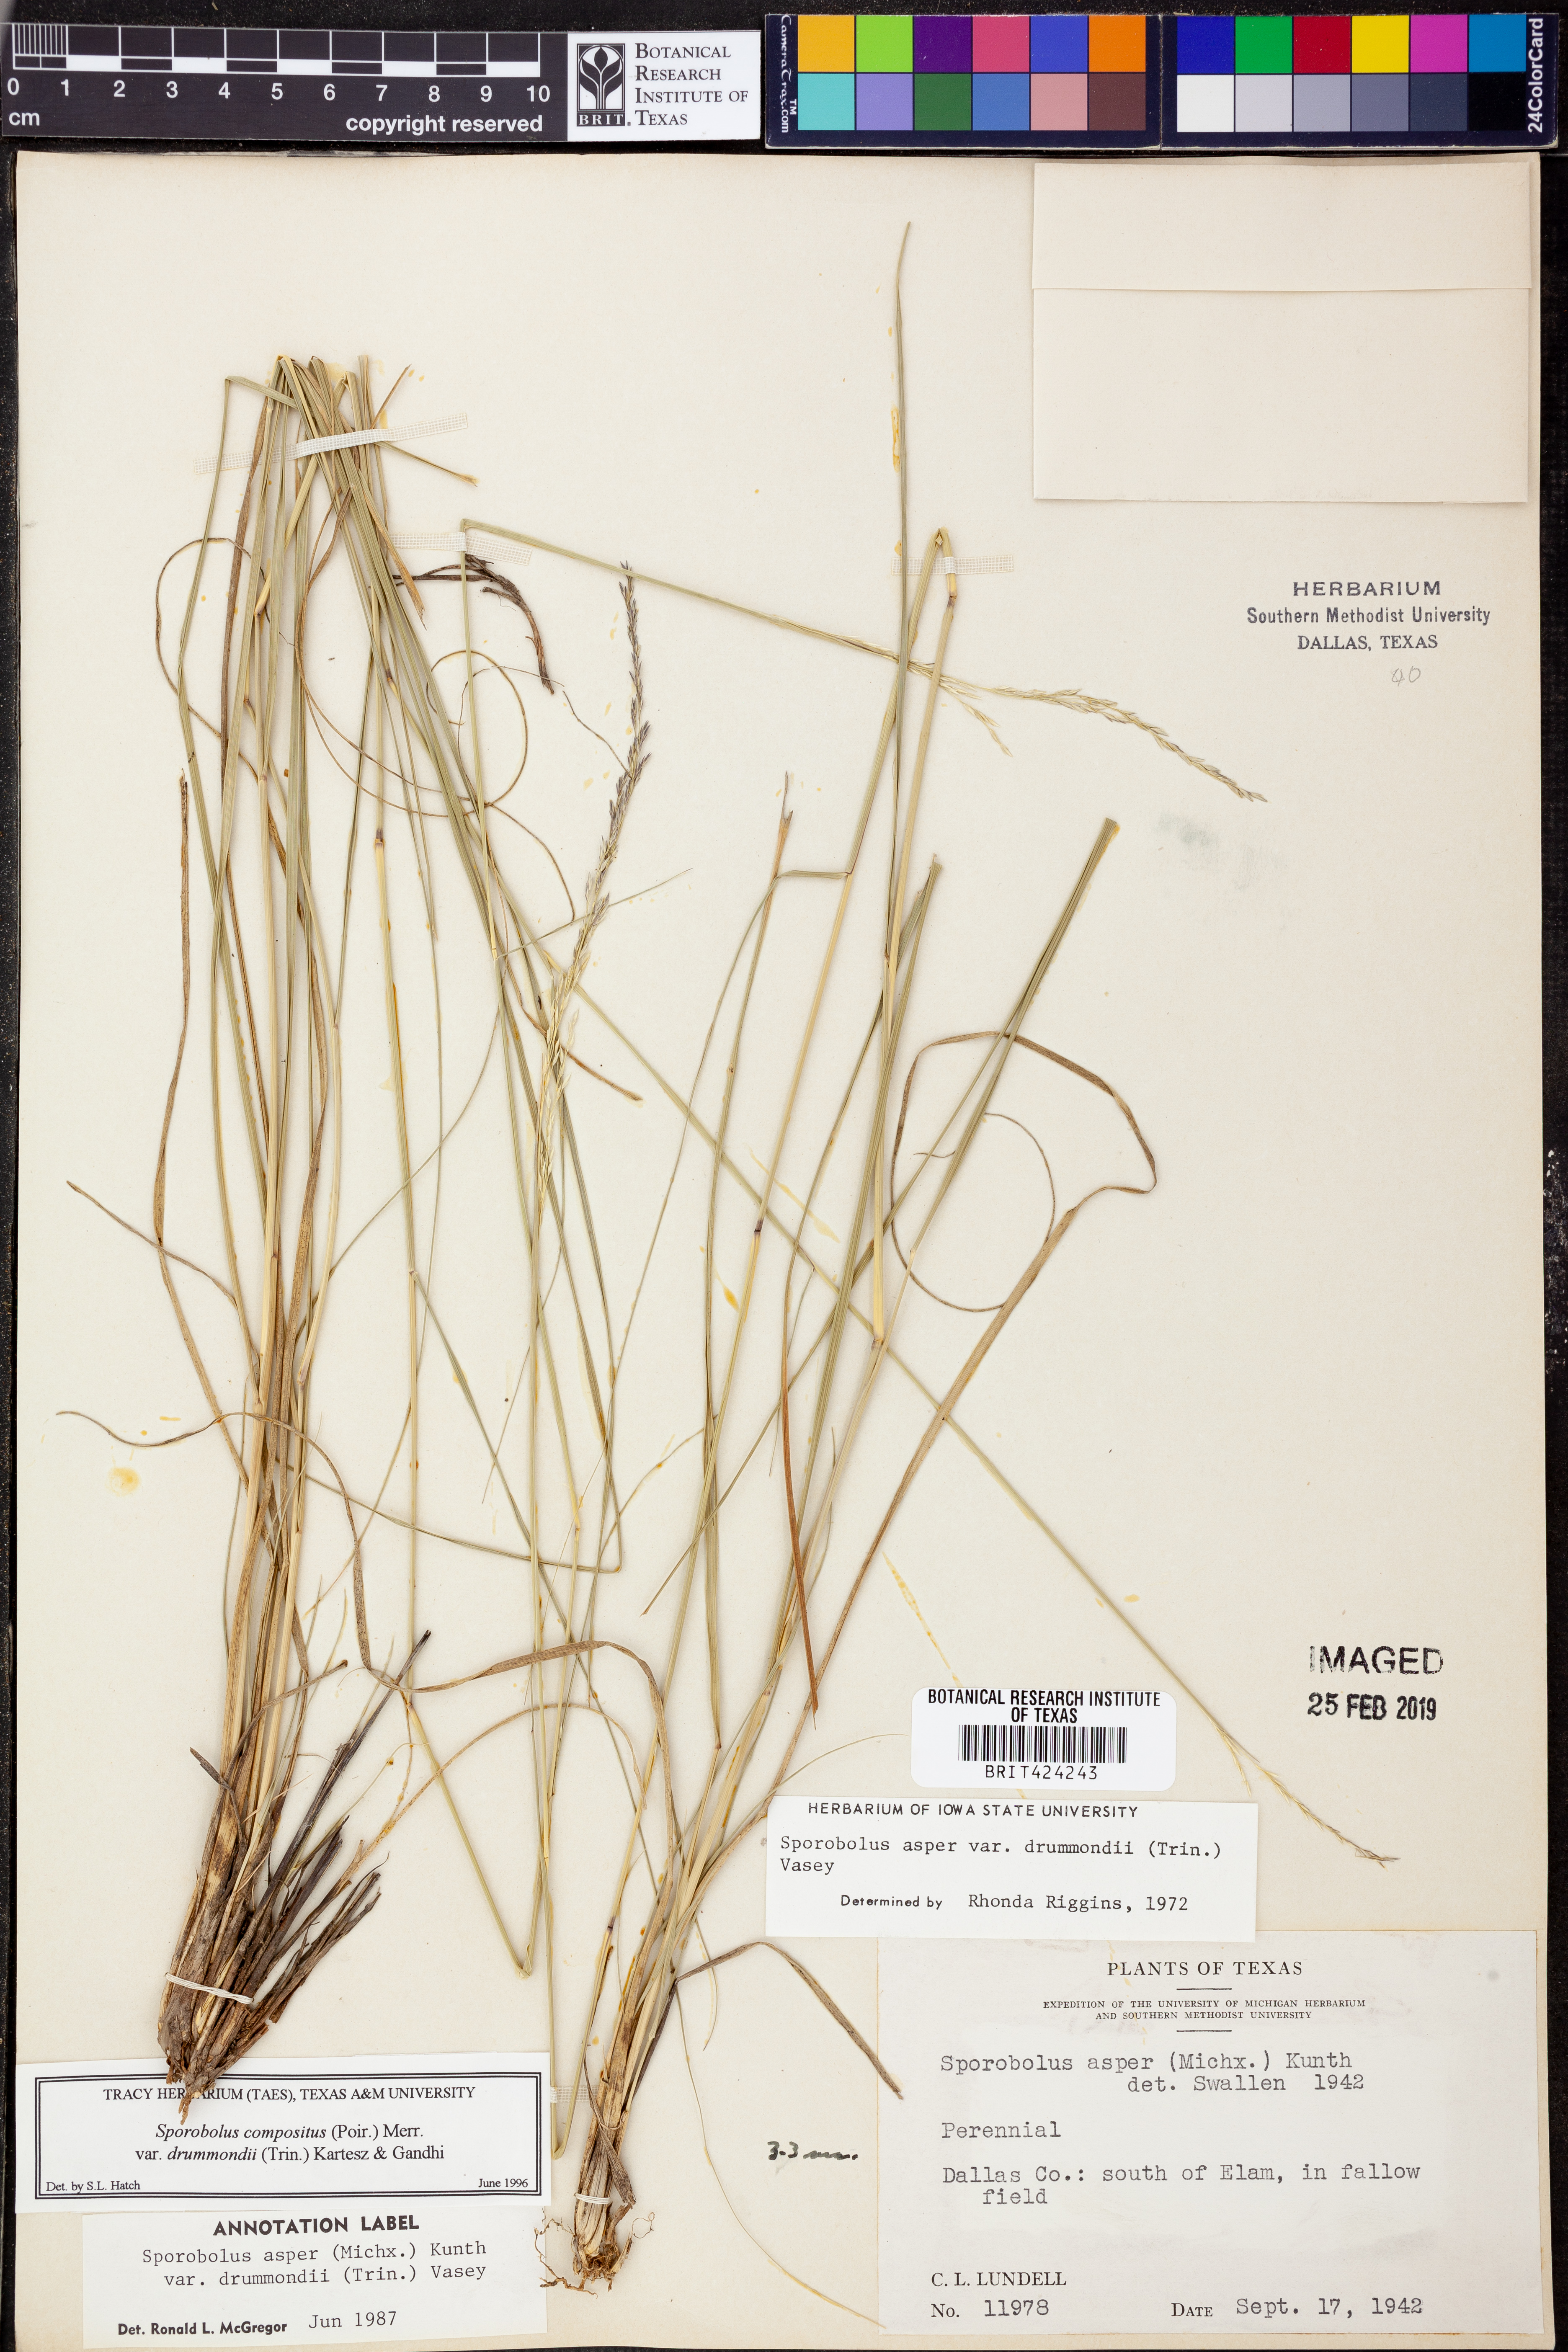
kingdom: Plantae
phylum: Tracheophyta
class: Liliopsida
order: Poales
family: Poaceae
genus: Sporobolus
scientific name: Sporobolus compositus
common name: Rough dropseed
